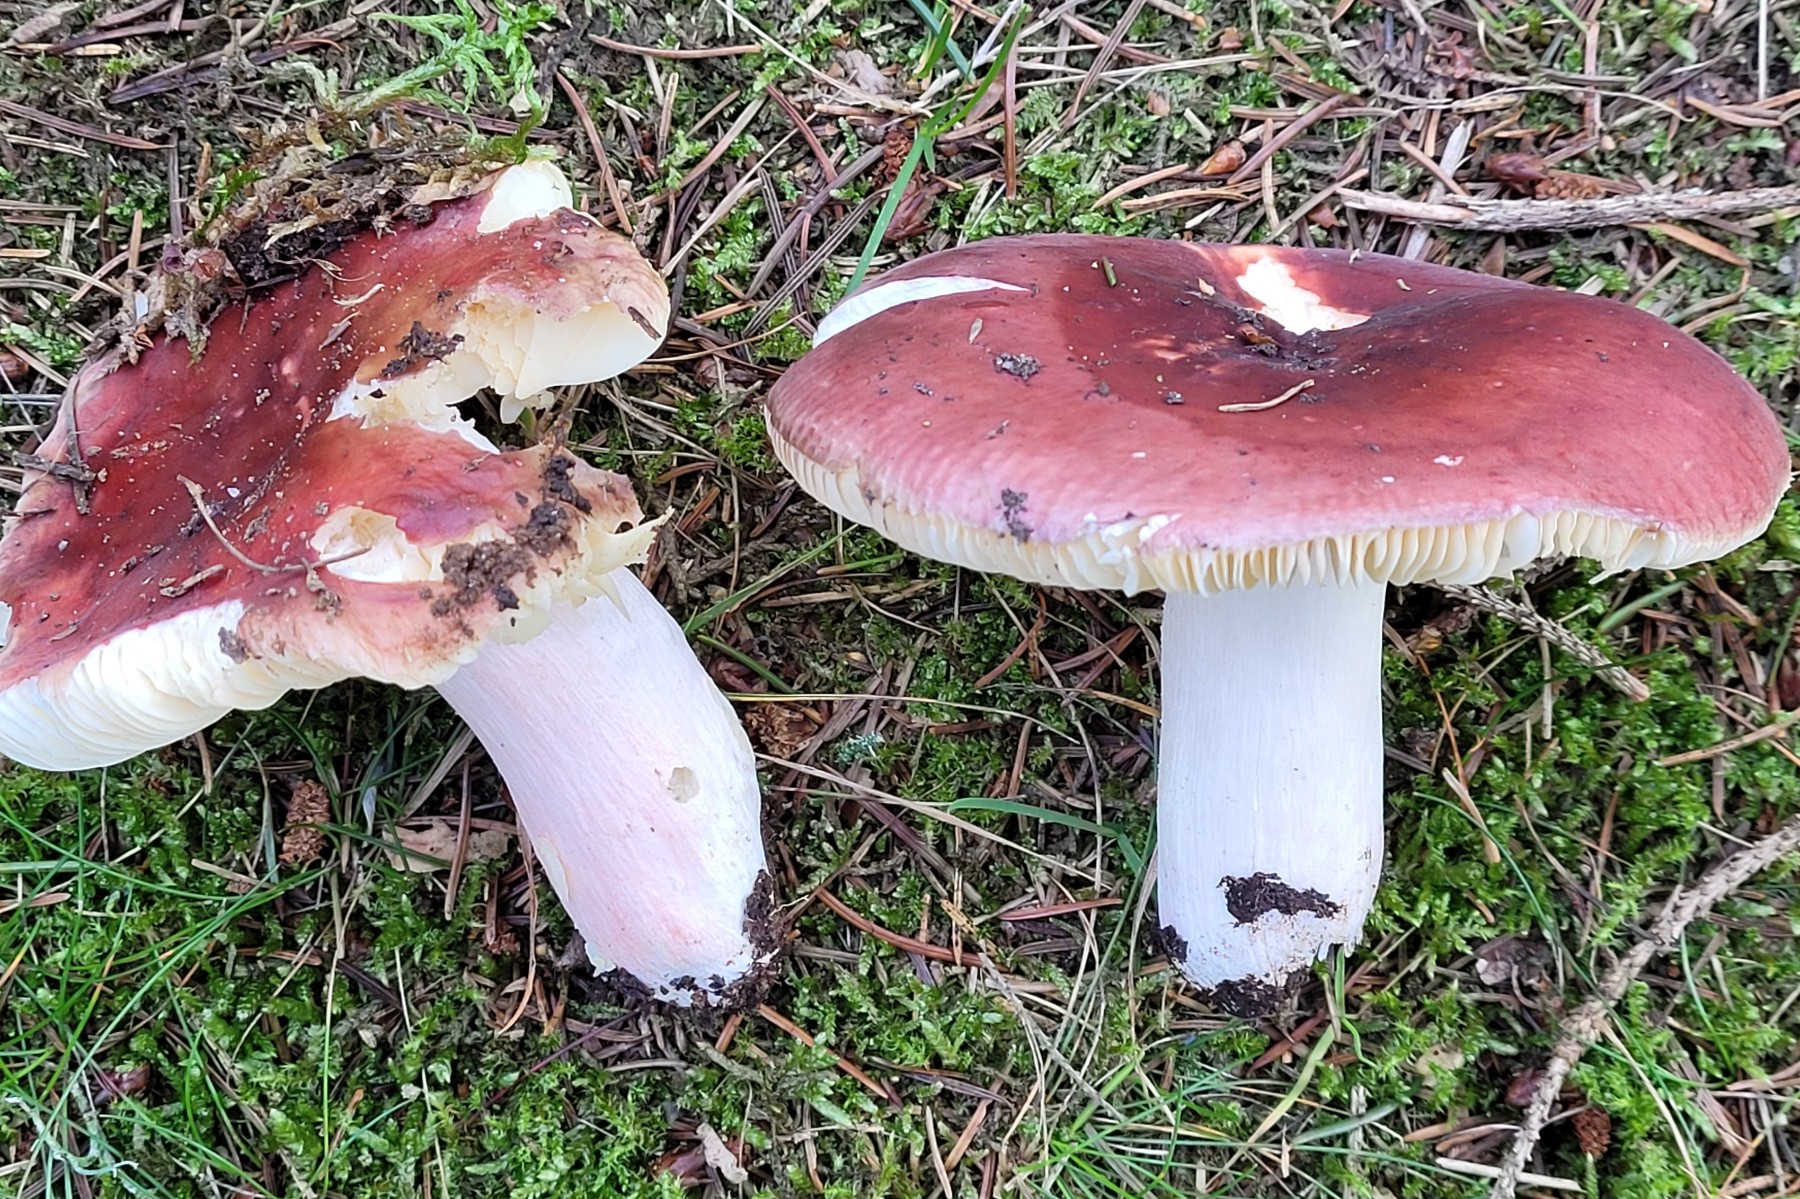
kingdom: Fungi
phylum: Basidiomycota
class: Agaricomycetes
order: Russulales
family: Russulaceae
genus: Russula
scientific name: Russula badia
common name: peber-skørhat
